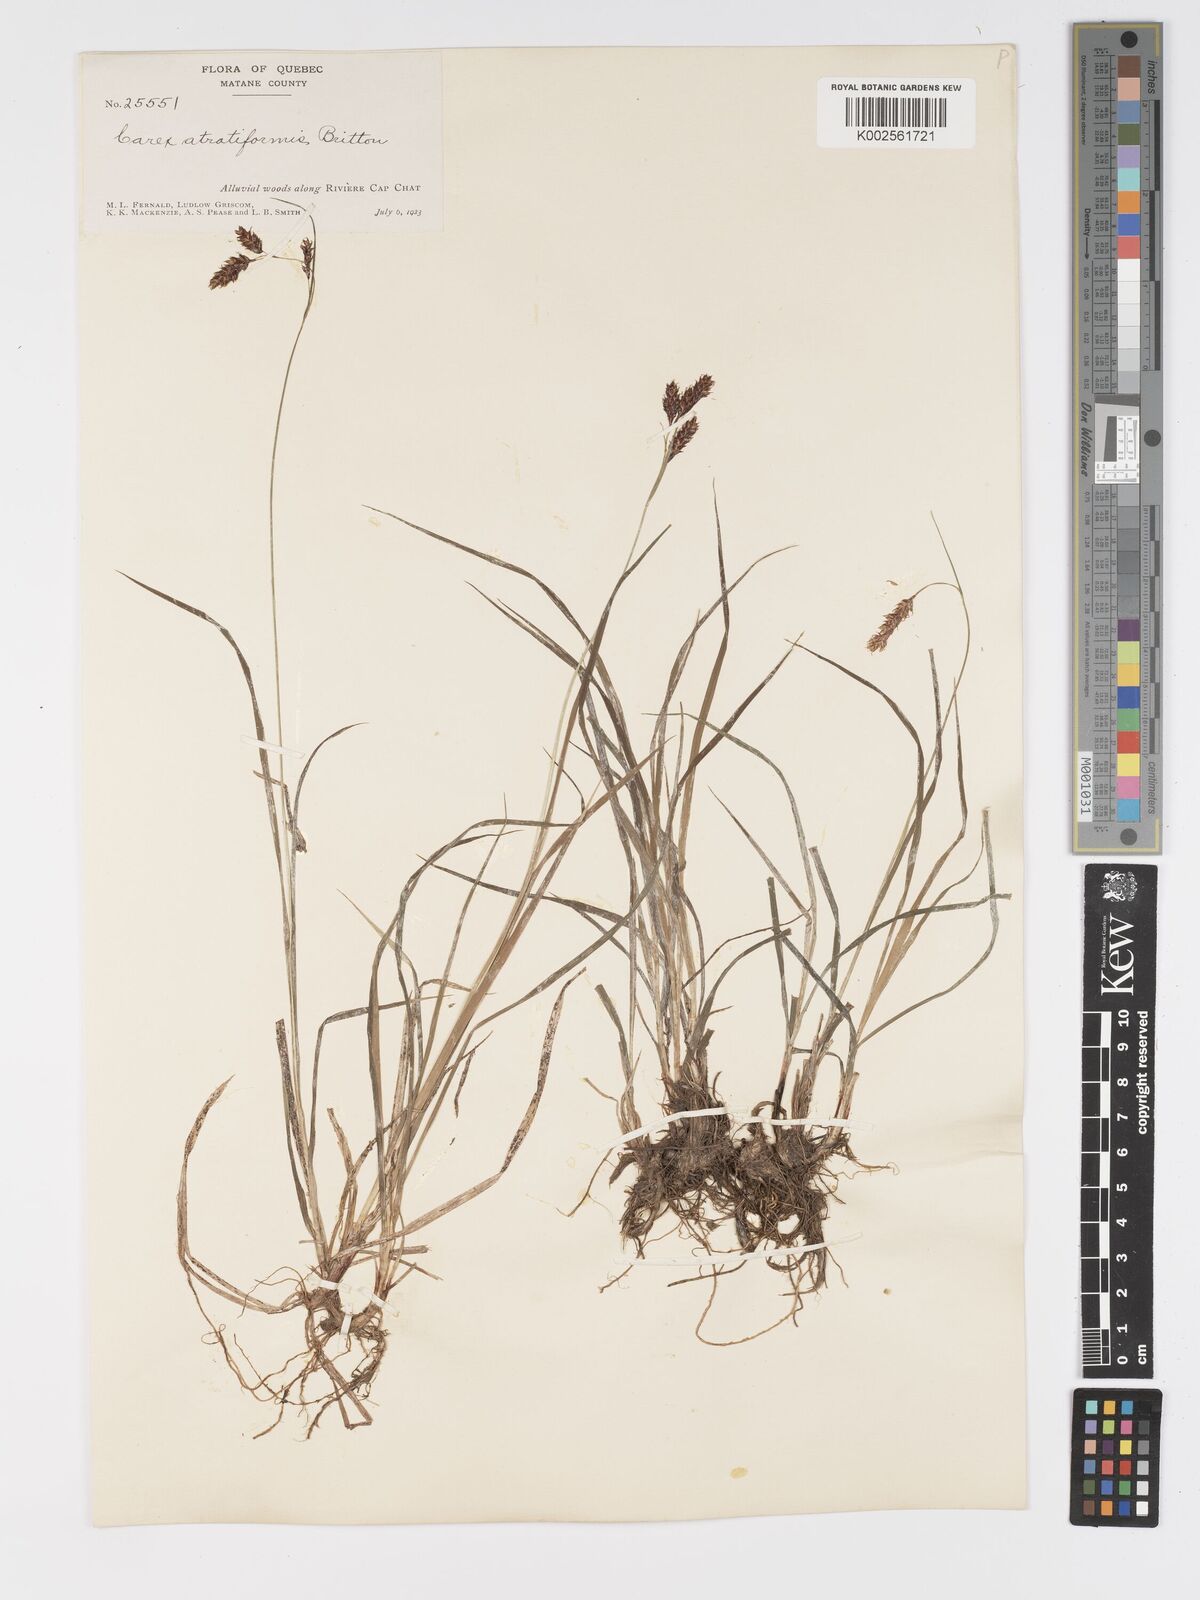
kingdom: Plantae
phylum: Tracheophyta
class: Liliopsida
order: Poales
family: Cyperaceae
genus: Carex
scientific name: Carex atratiformis
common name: Black sedge
